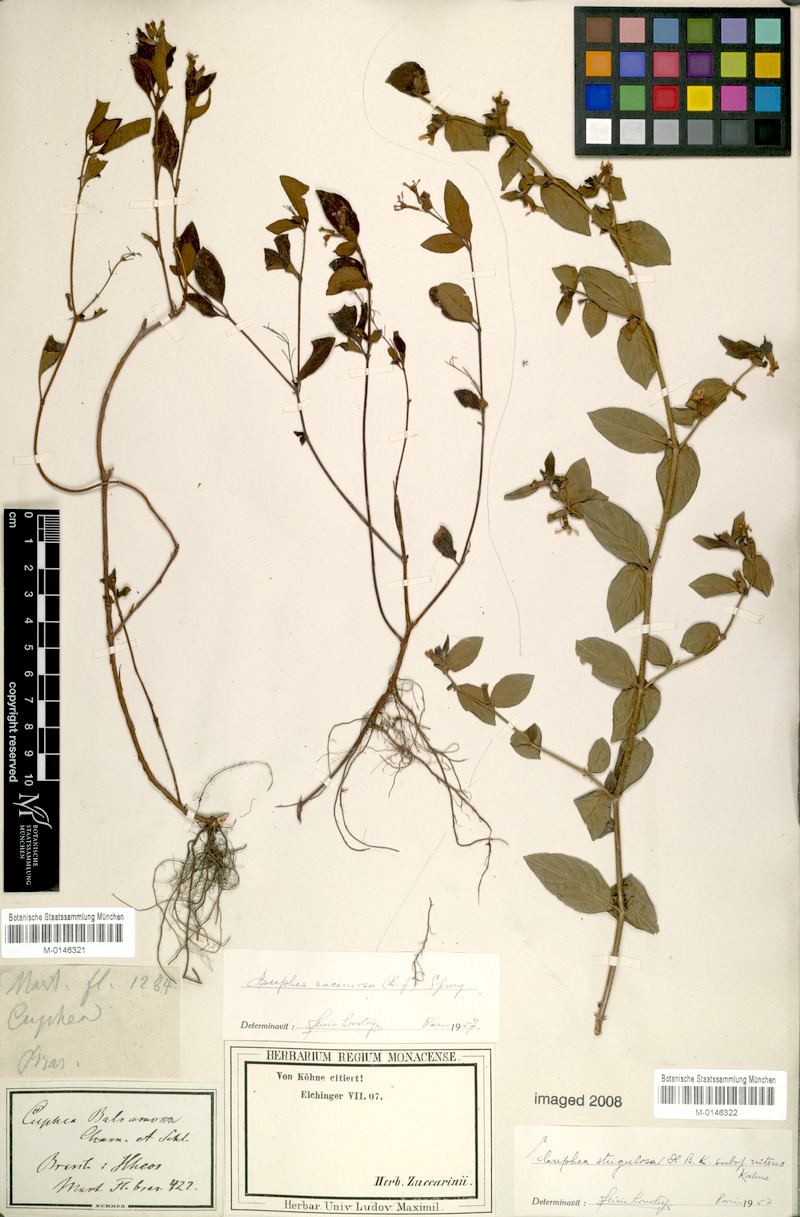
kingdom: Plantae
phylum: Tracheophyta
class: Magnoliopsida
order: Myrtales
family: Lythraceae
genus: Cuphea
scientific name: Cuphea racemosa
